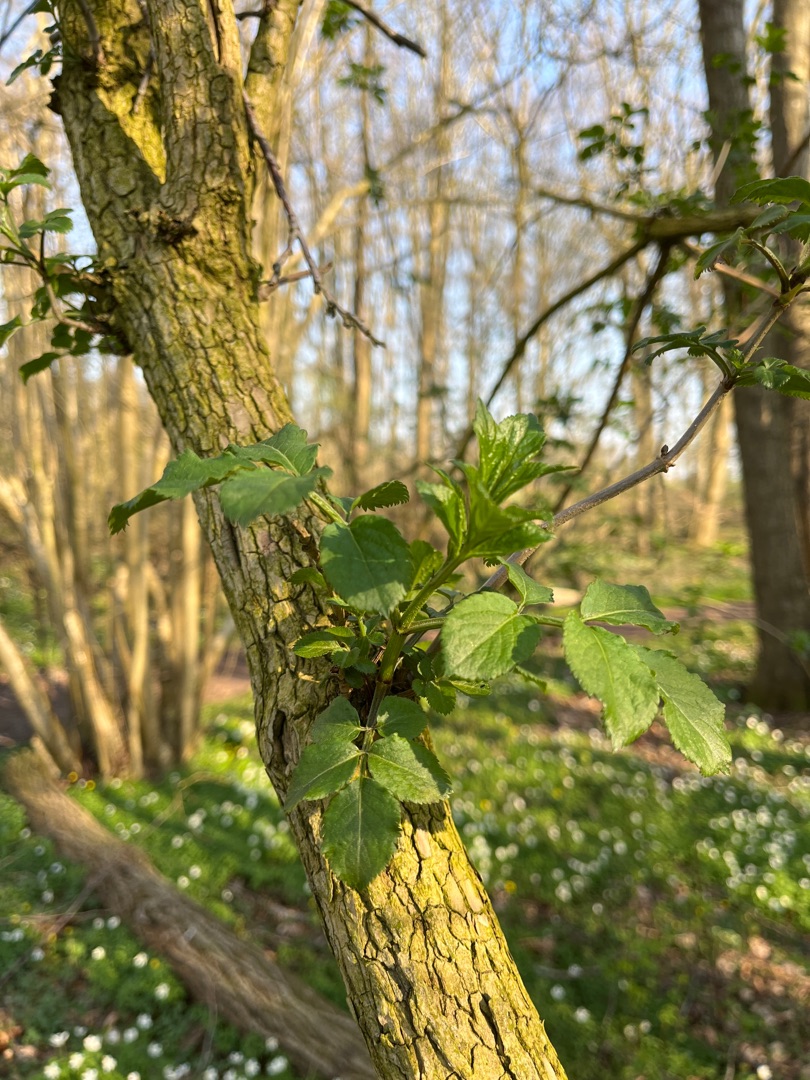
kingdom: Plantae
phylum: Tracheophyta
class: Magnoliopsida
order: Dipsacales
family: Viburnaceae
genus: Sambucus
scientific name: Sambucus nigra
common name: Almindelig hyld
